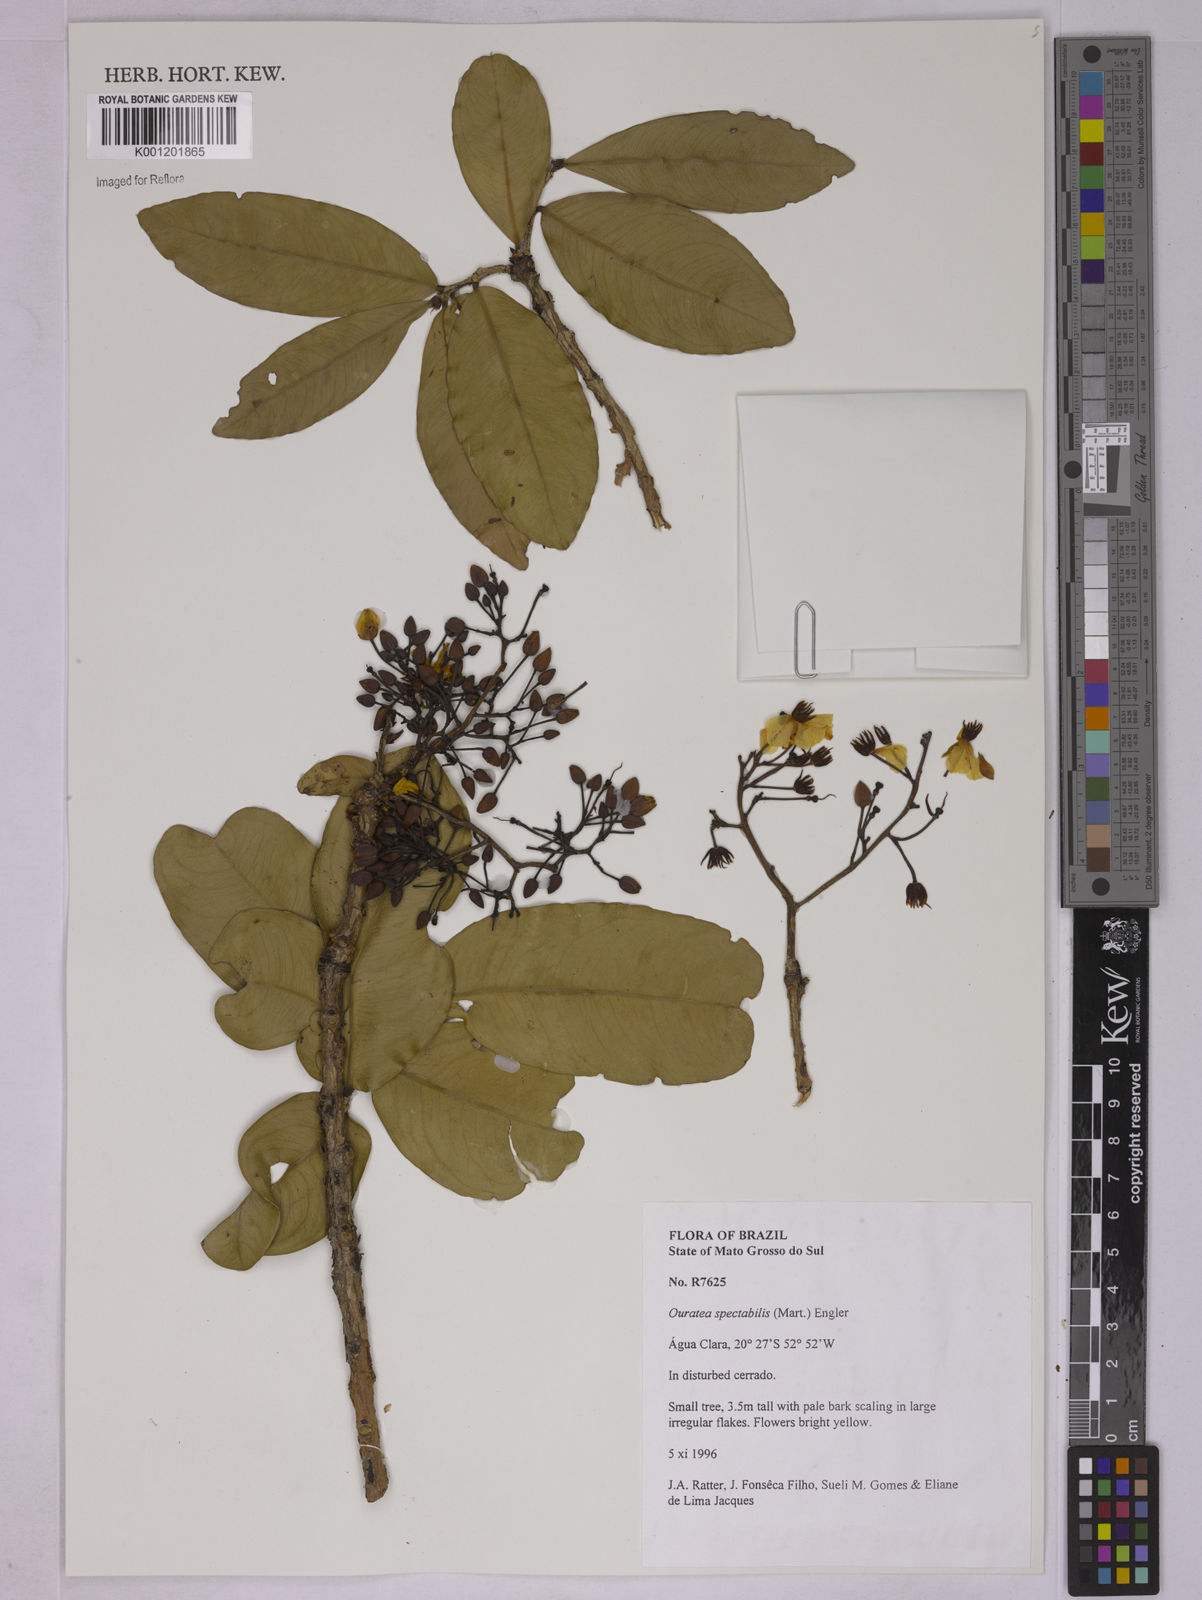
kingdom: Plantae
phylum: Tracheophyta
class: Magnoliopsida
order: Malpighiales
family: Ochnaceae
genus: Ouratea
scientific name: Ouratea spectabilis
